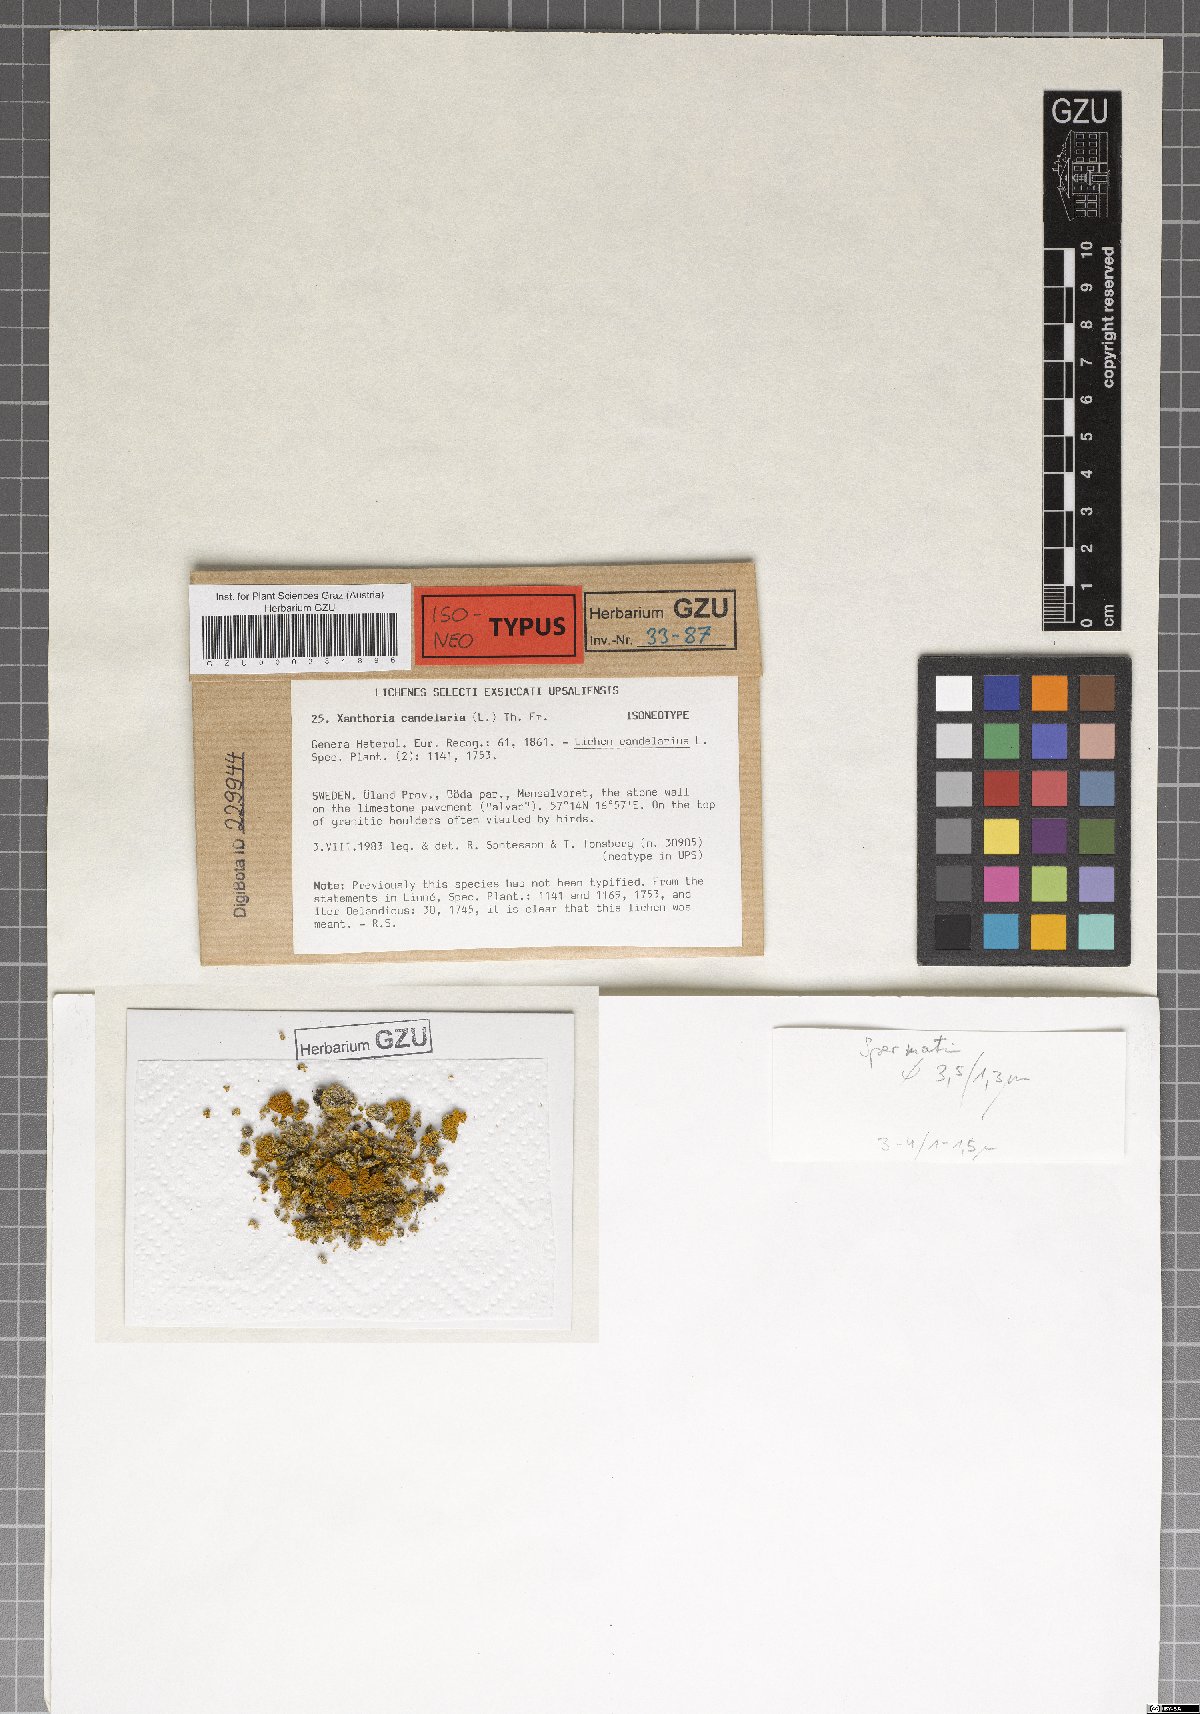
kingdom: Fungi
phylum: Ascomycota
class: Lecanoromycetes
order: Teloschistales
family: Teloschistaceae
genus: Polycauliona
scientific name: Polycauliona candelaria
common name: Shrubby sunburst lichen
